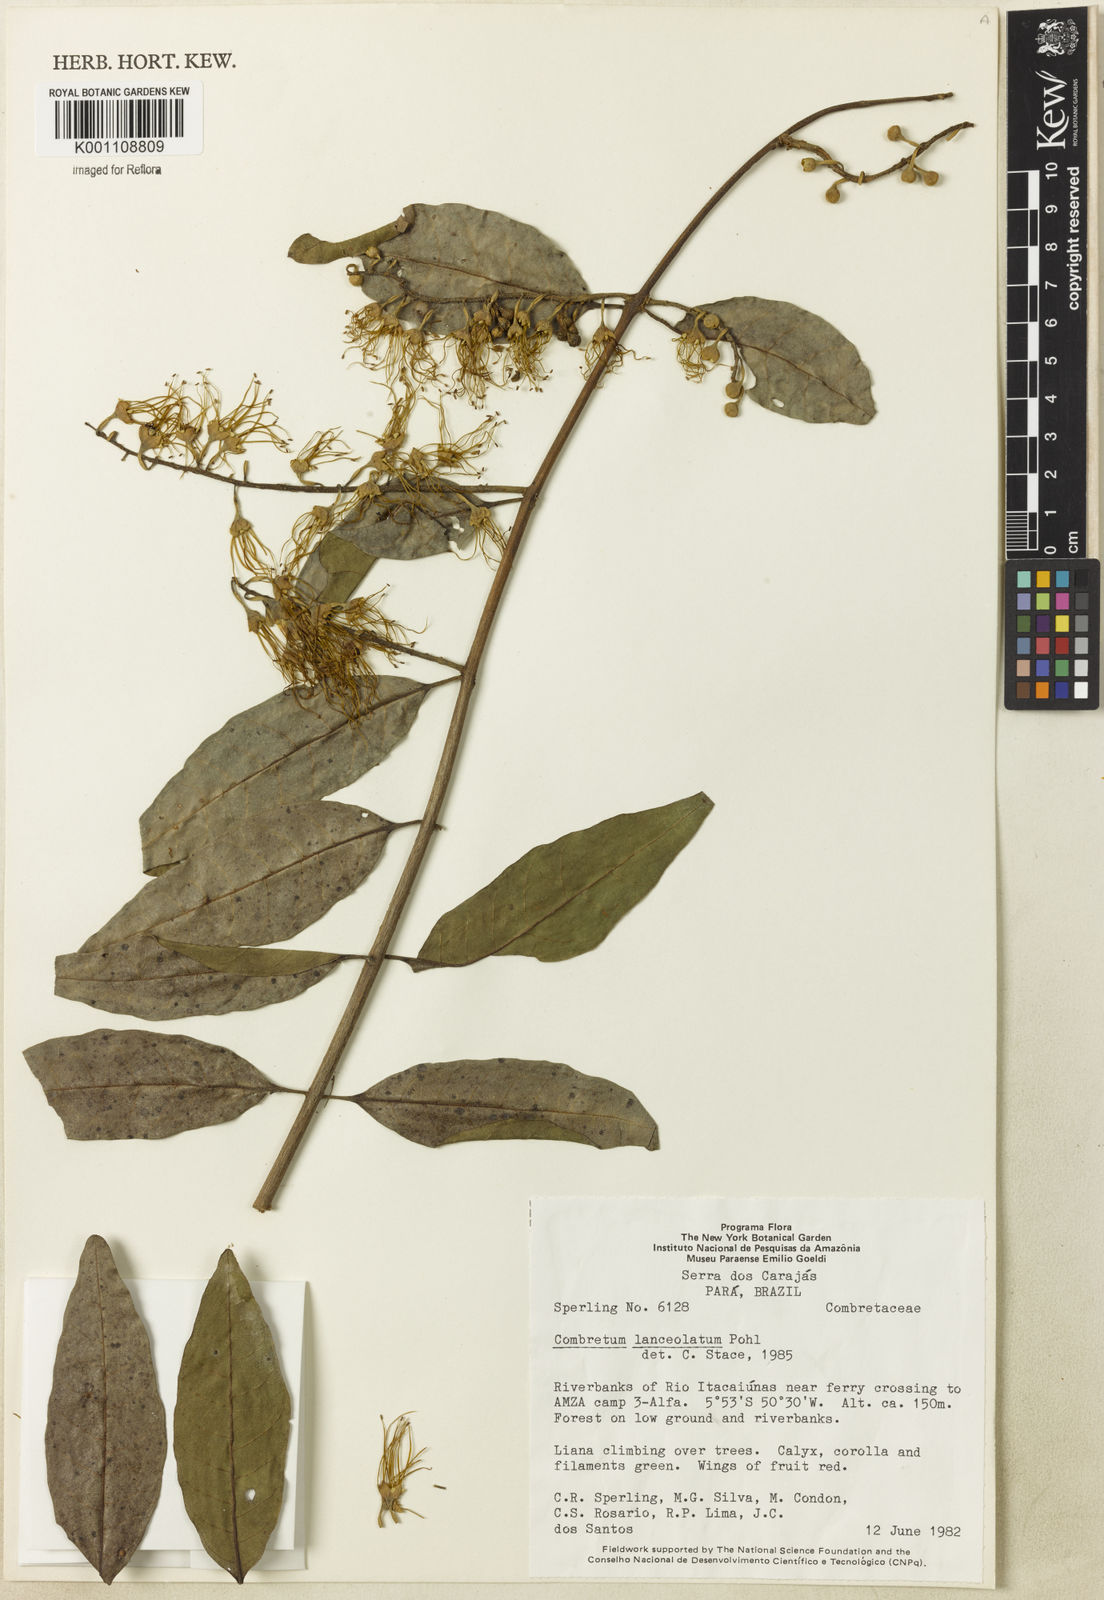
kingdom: Plantae
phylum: Tracheophyta
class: Magnoliopsida
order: Myrtales
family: Combretaceae
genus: Combretum
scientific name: Combretum lanceolatum
